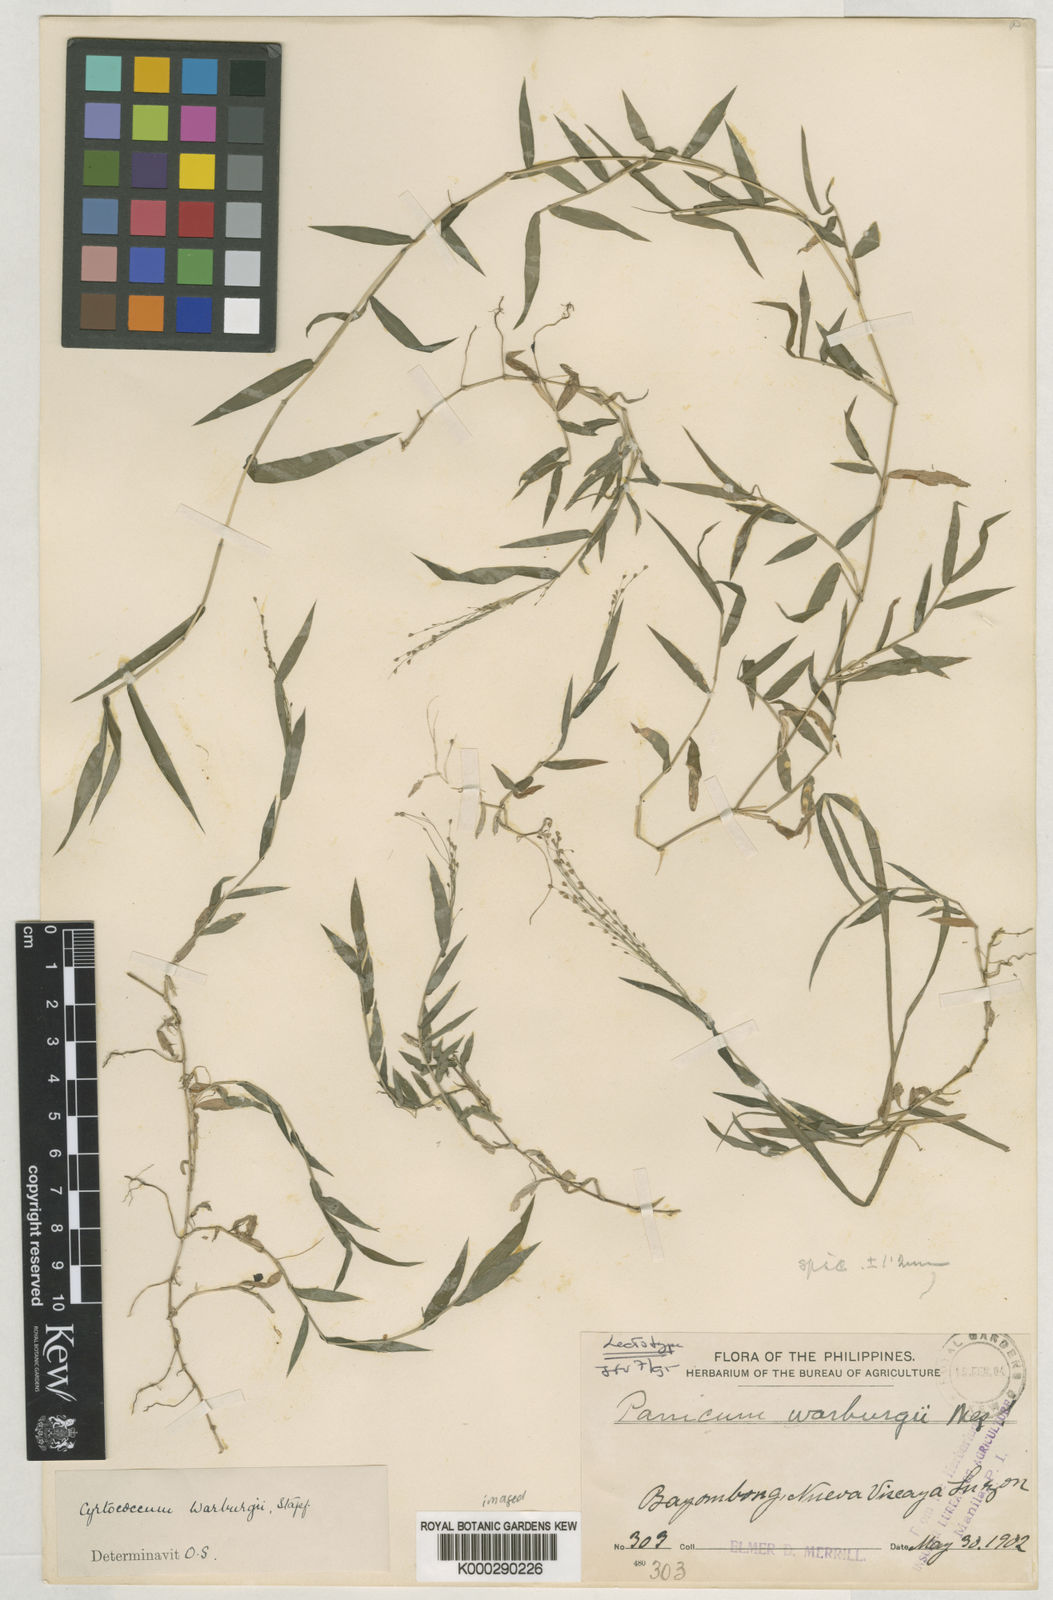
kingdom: Plantae
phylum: Tracheophyta
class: Liliopsida
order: Poales
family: Poaceae
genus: Cyrtococcum
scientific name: Cyrtococcum patens
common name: Broad-leaved bowgrass
